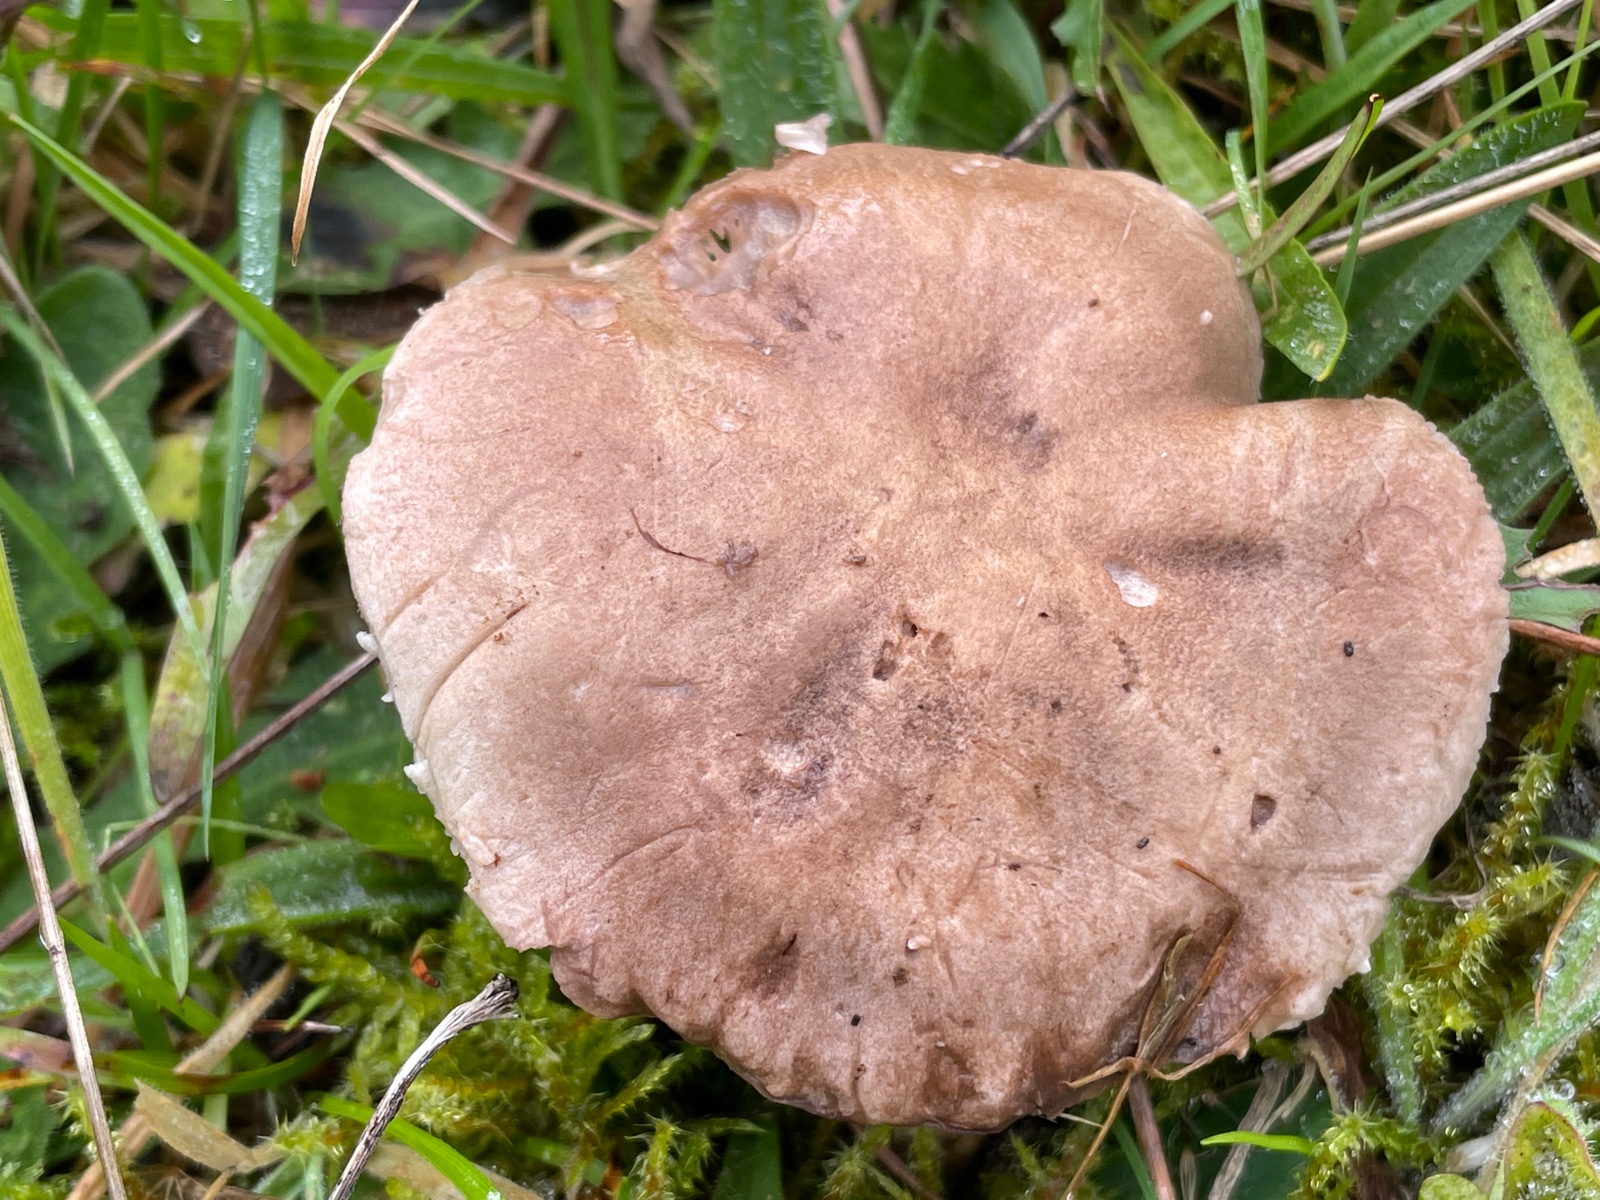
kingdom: Fungi
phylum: Basidiomycota
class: Agaricomycetes
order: Agaricales
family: Tricholomataceae
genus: Pseudotricholoma
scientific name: Pseudotricholoma metapodium
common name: rødmende alfehat
